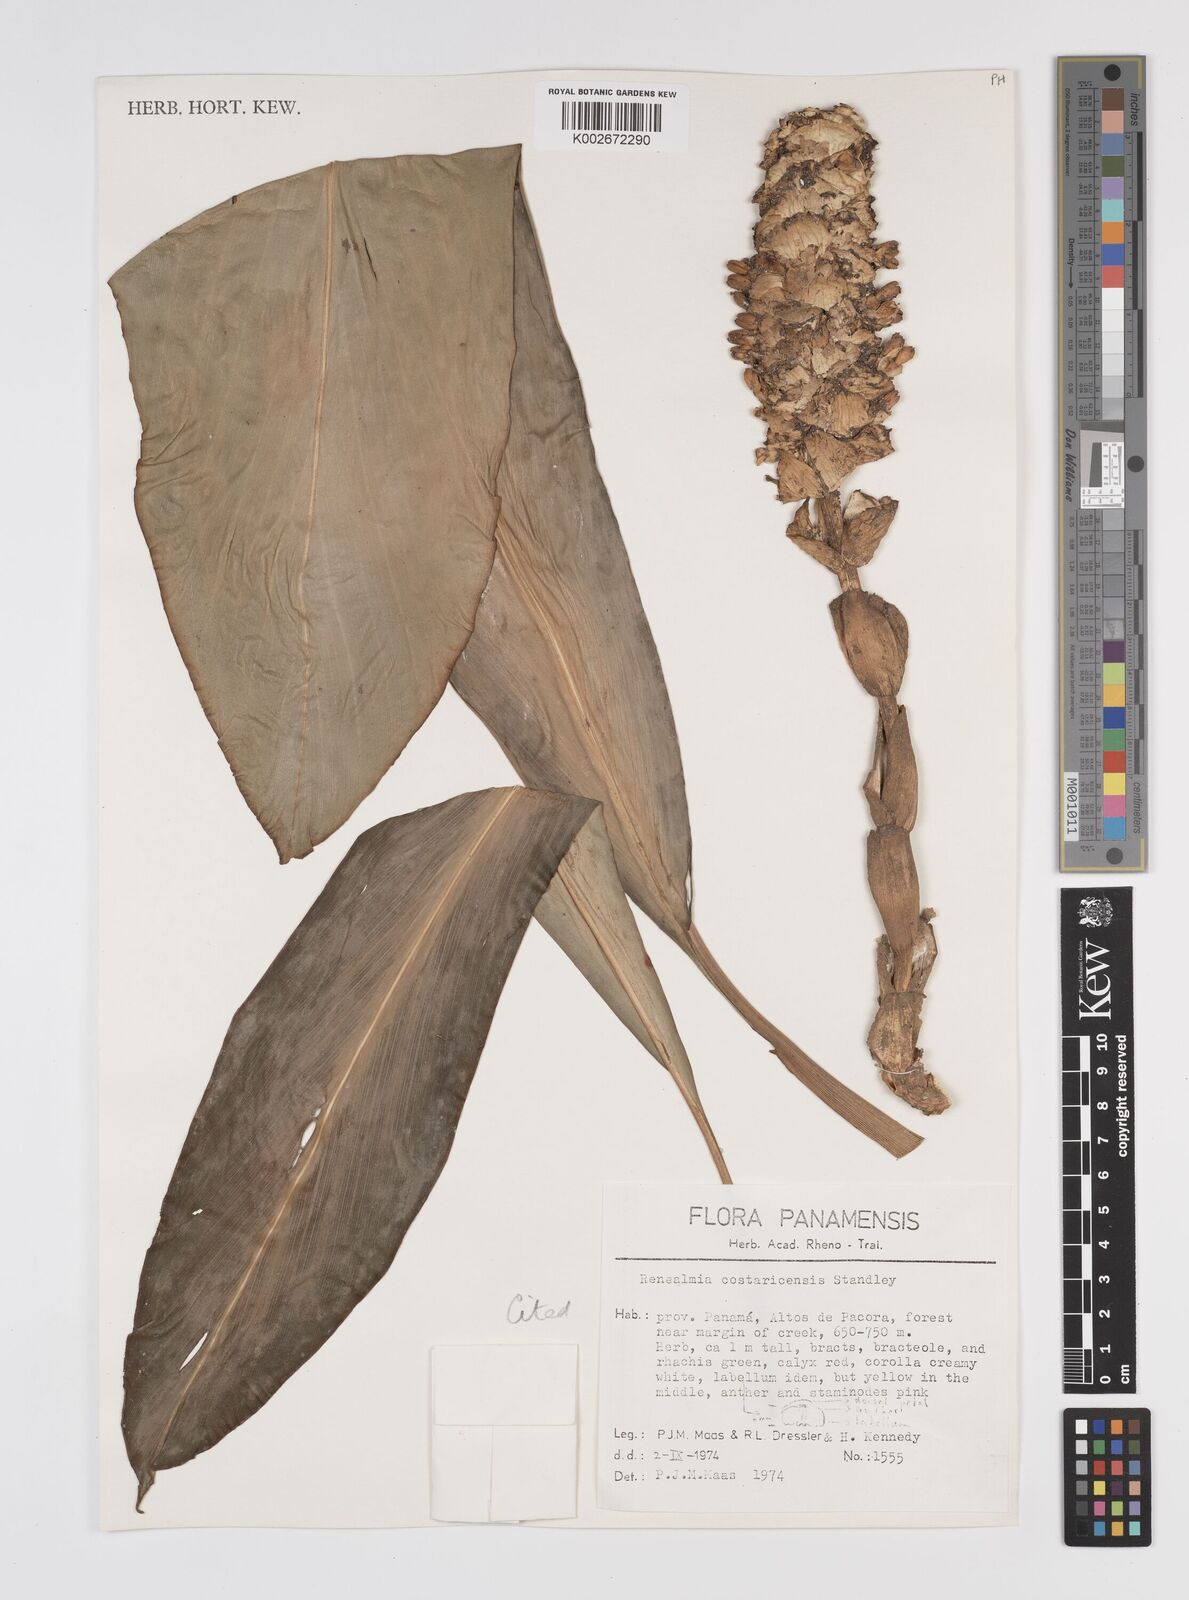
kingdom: Plantae
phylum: Tracheophyta
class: Liliopsida
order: Zingiberales
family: Zingiberaceae
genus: Renealmia
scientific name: Renealmia costaricensis
